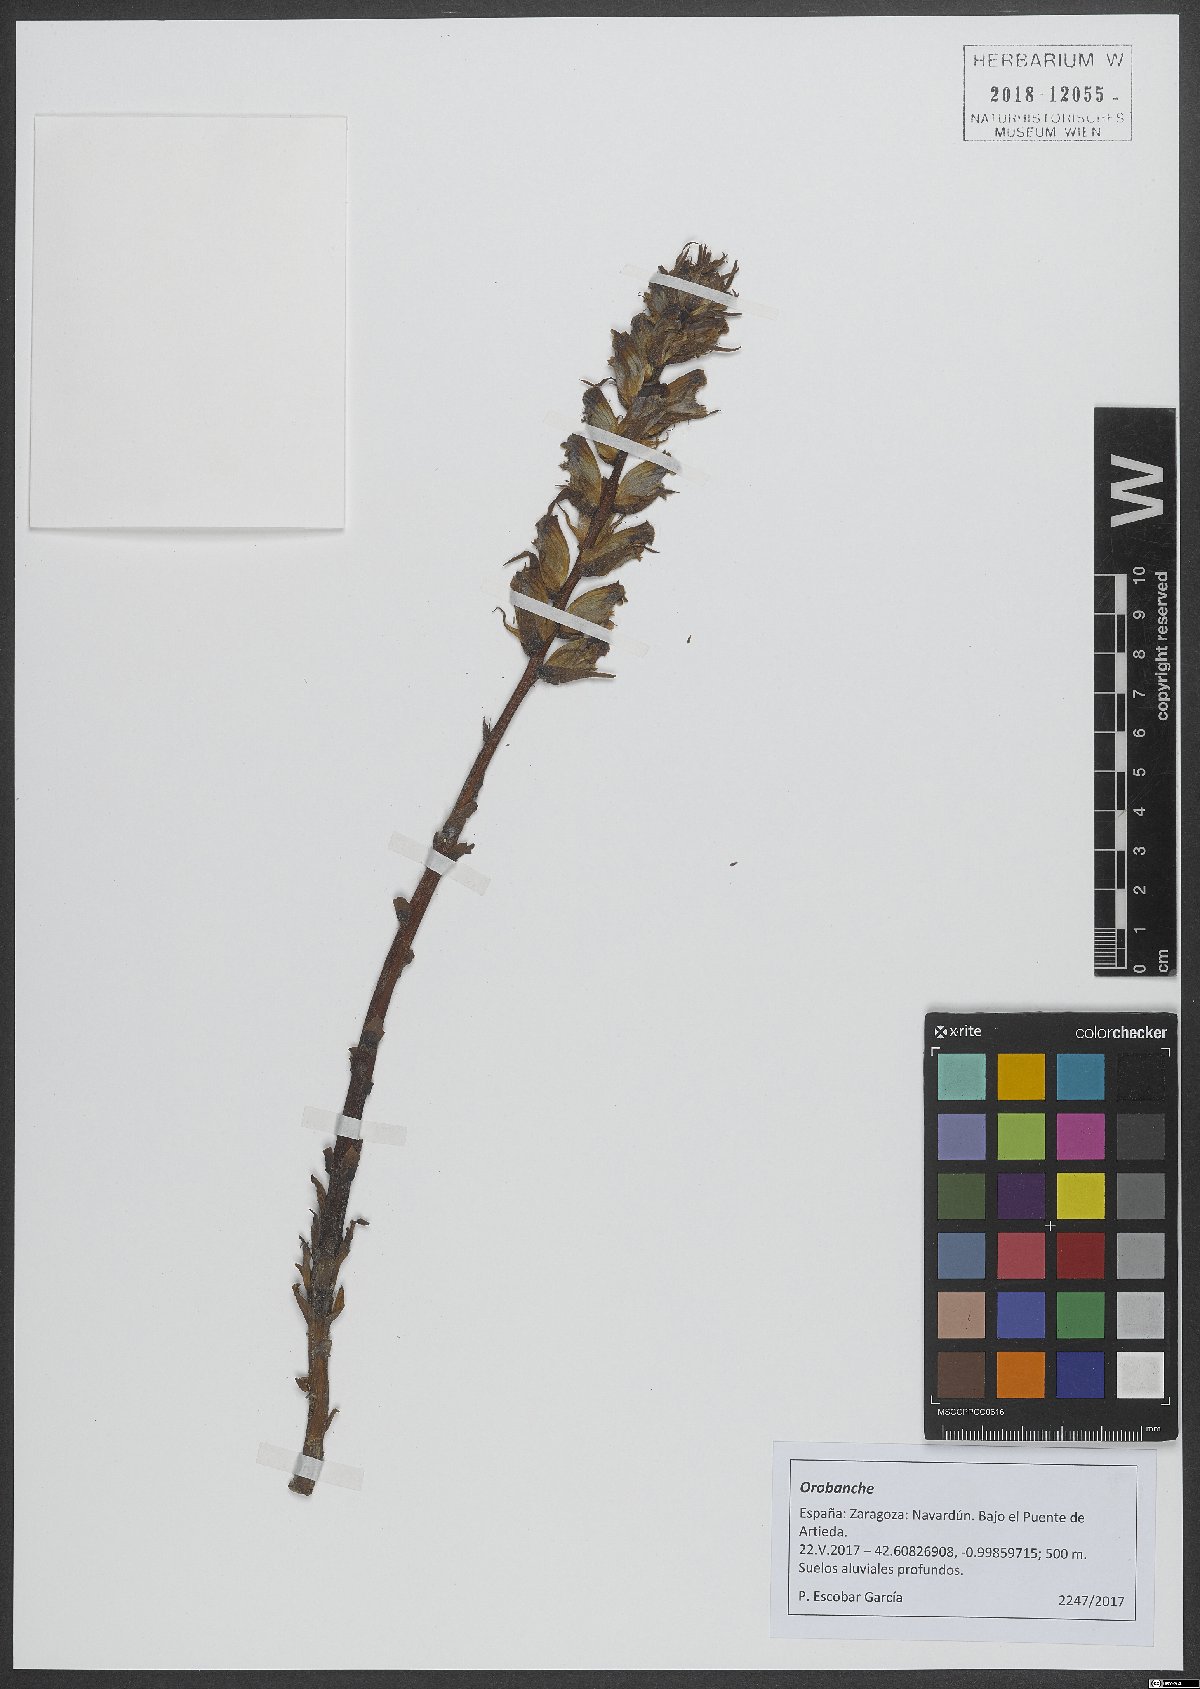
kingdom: Plantae
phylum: Tracheophyta
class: Magnoliopsida
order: Lamiales
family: Orobanchaceae
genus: Orobanche
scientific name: Orobanche
